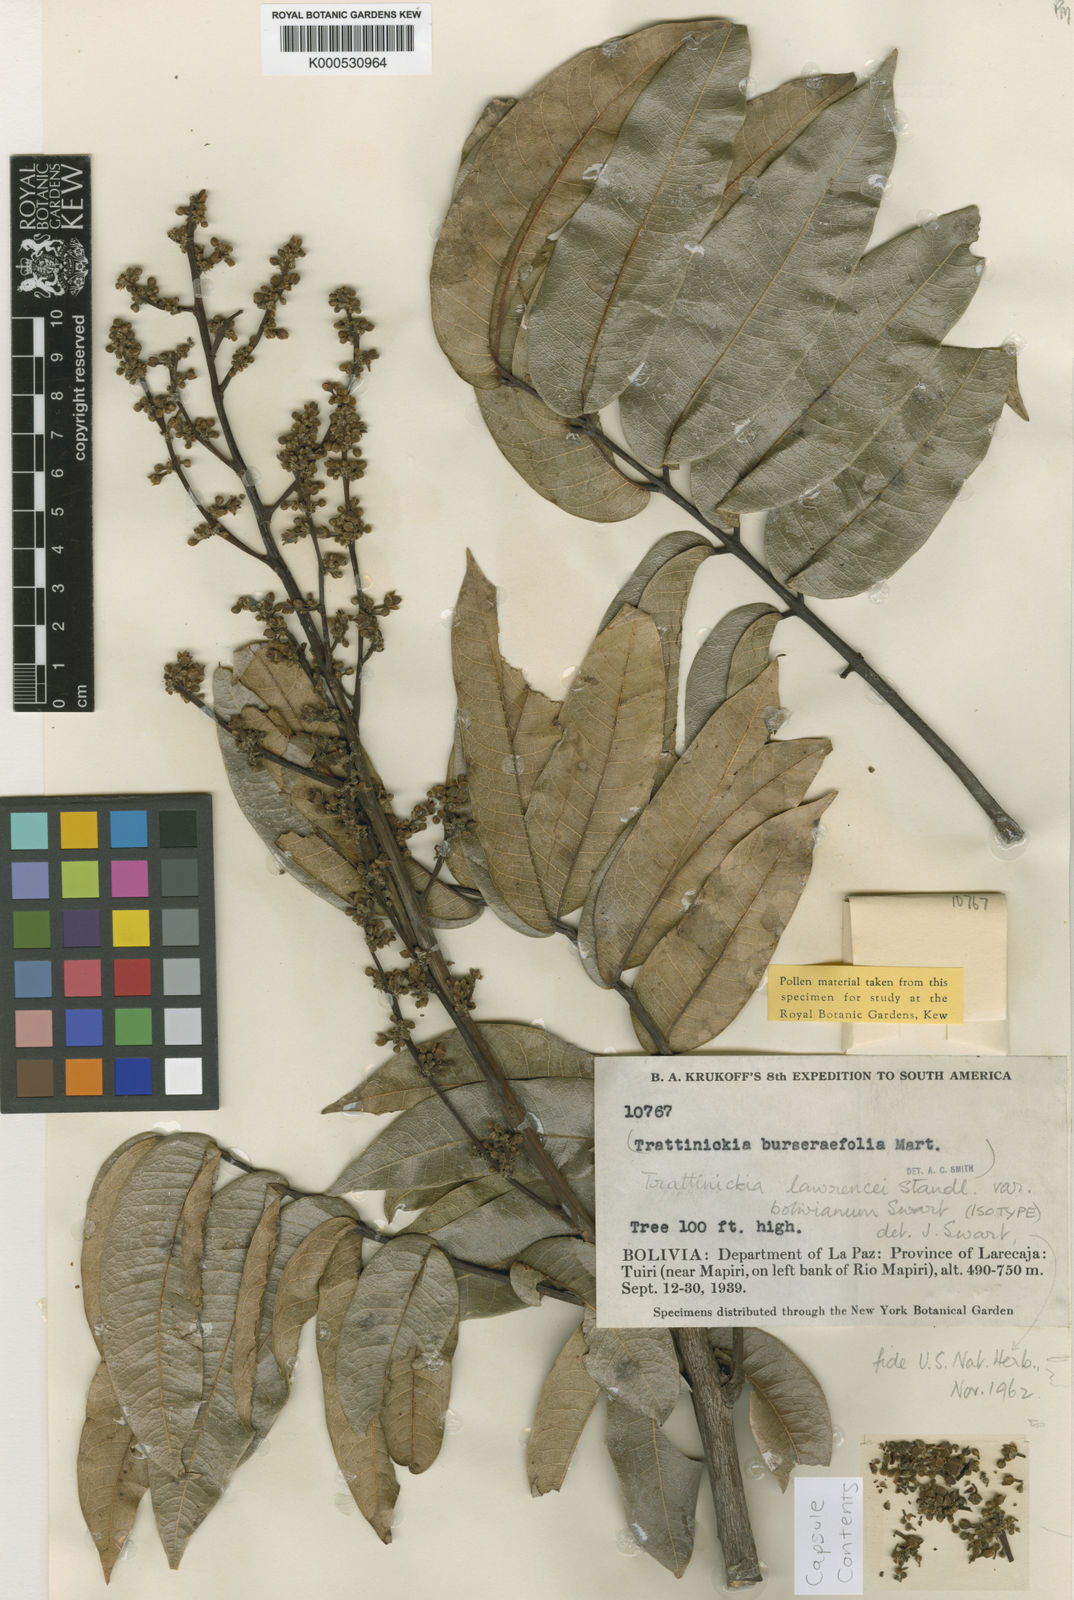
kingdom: Plantae
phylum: Tracheophyta
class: Magnoliopsida
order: Sapindales
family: Burseraceae
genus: Trattinnickia
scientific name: Trattinnickia boliviana
